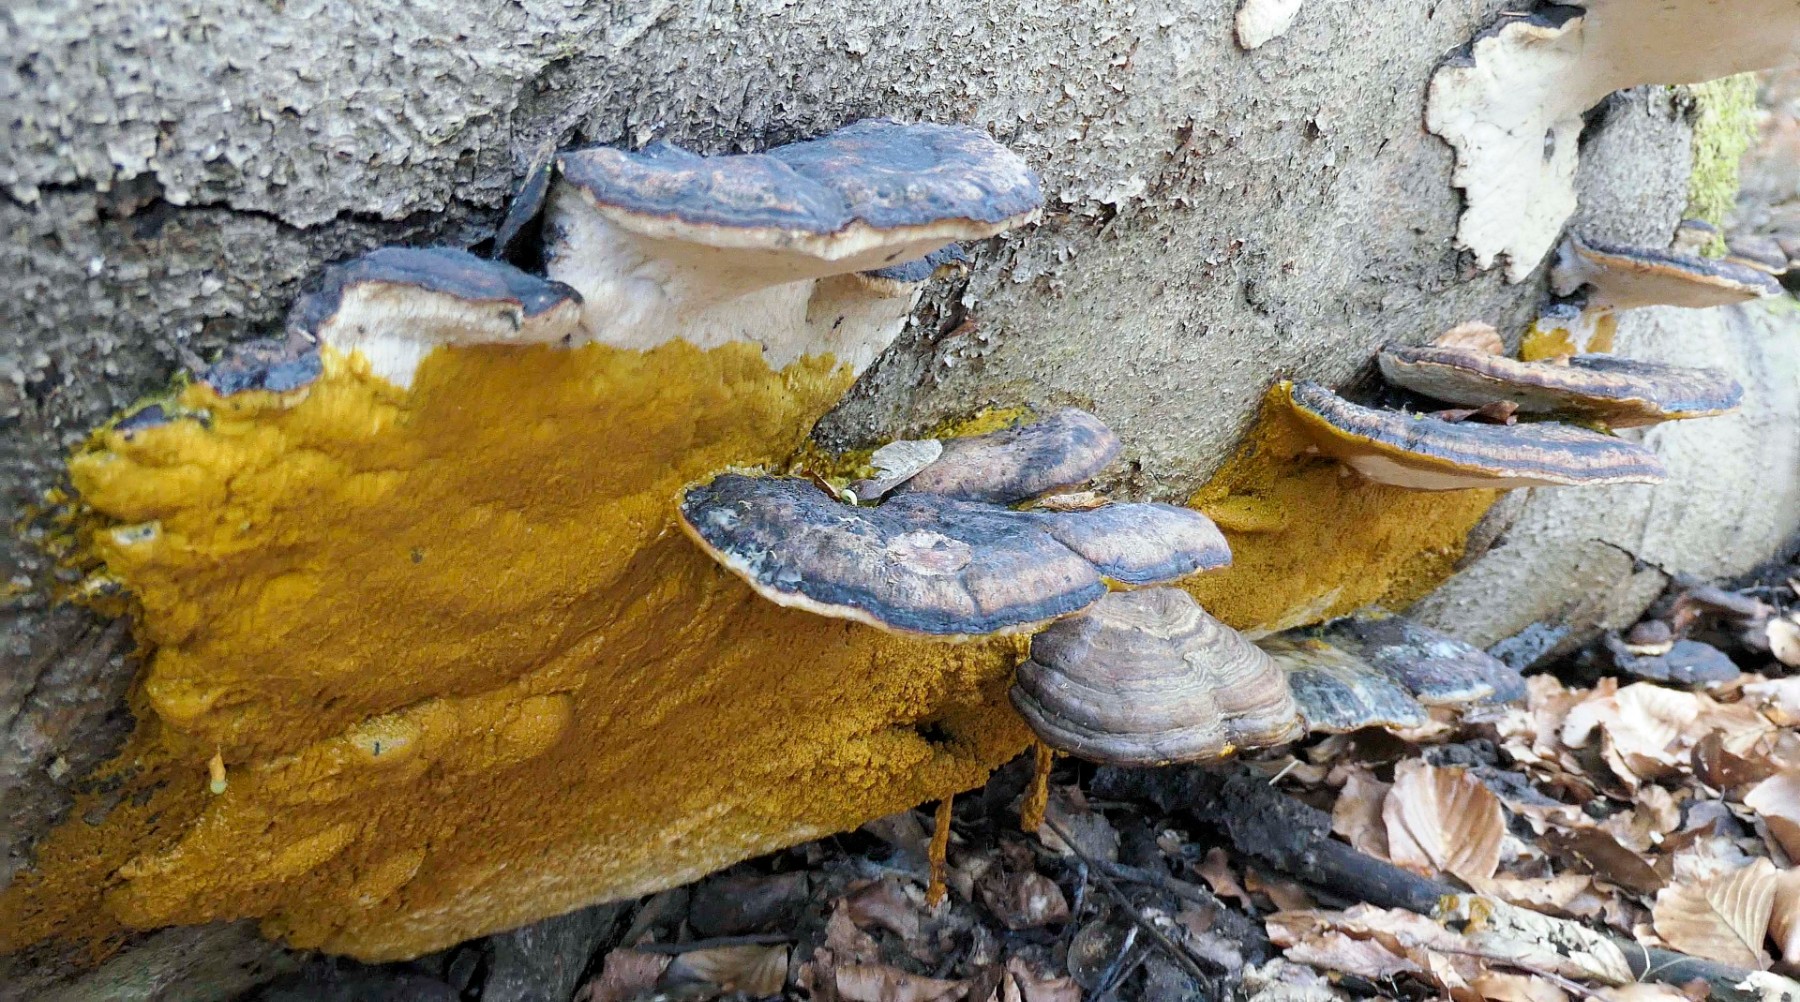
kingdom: Fungi
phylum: Basidiomycota
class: Agaricomycetes
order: Polyporales
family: Ischnodermataceae
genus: Ischnoderma
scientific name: Ischnoderma resinosum
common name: løv-tjæreporesvamp
